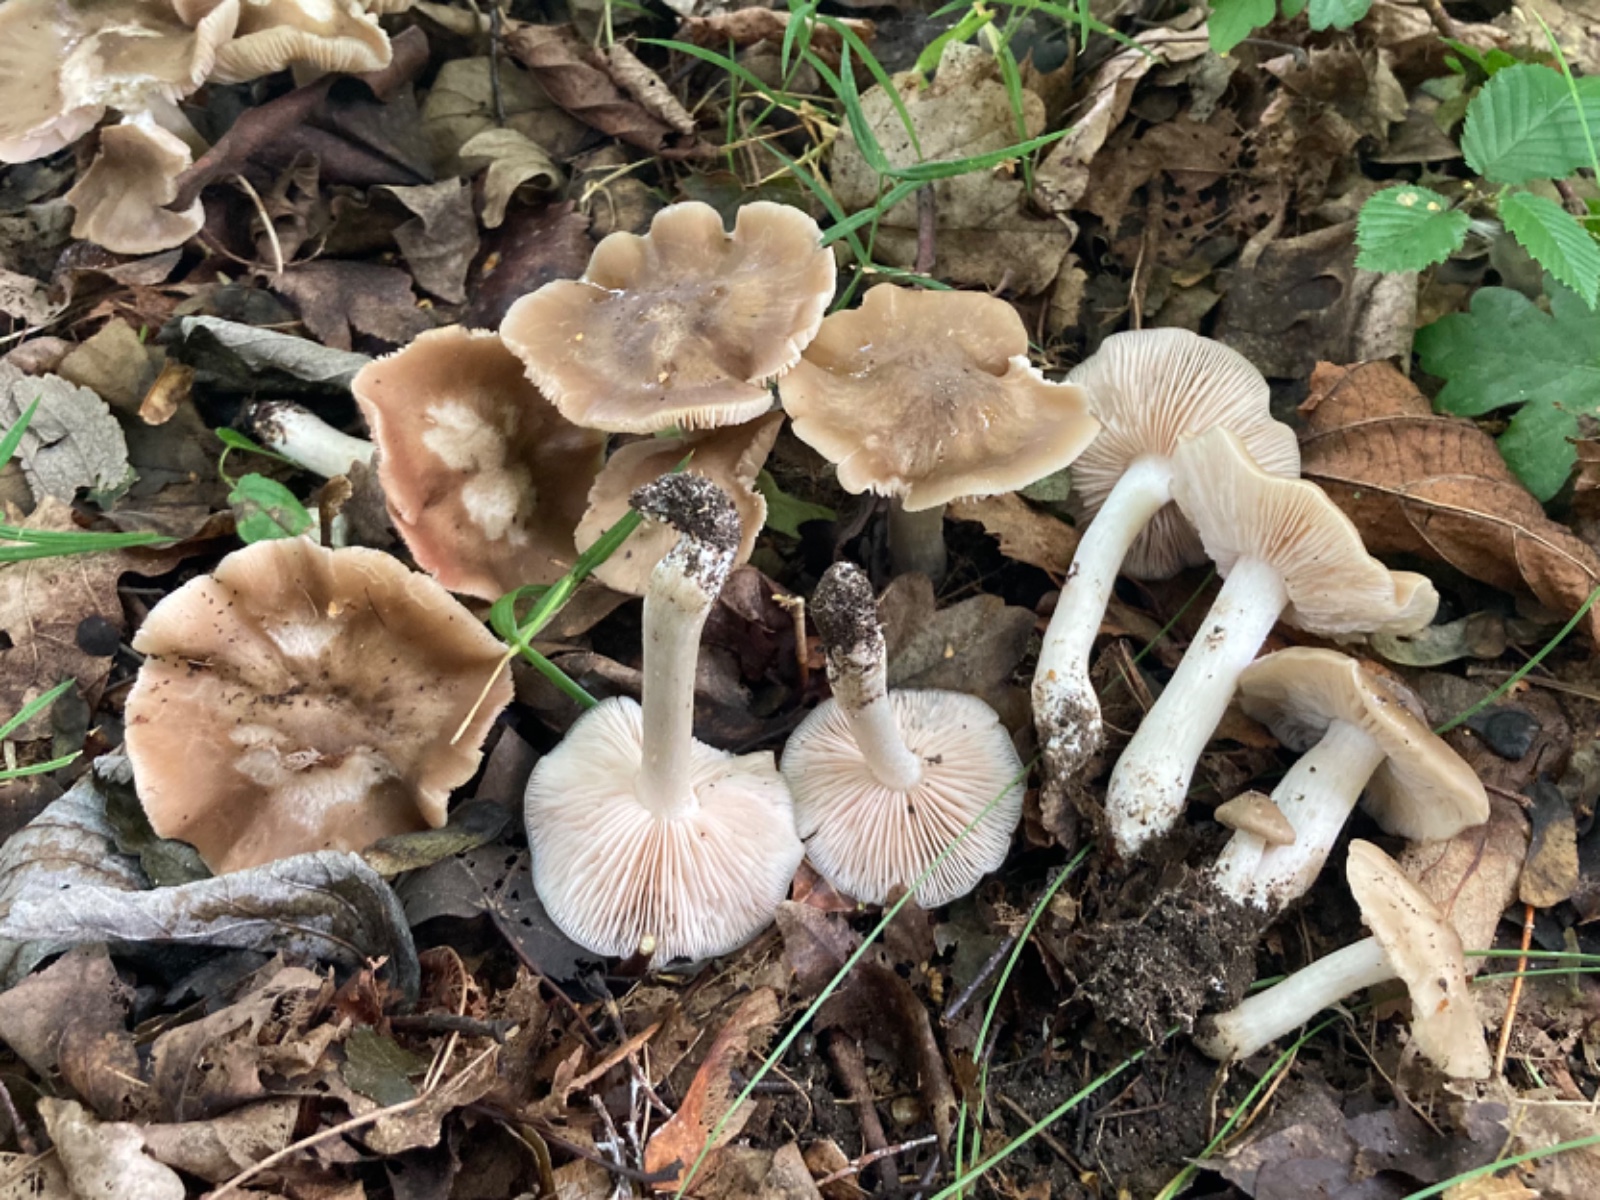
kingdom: Fungi
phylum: Basidiomycota
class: Agaricomycetes
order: Agaricales
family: Entolomataceae
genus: Entoloma
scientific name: Entoloma
